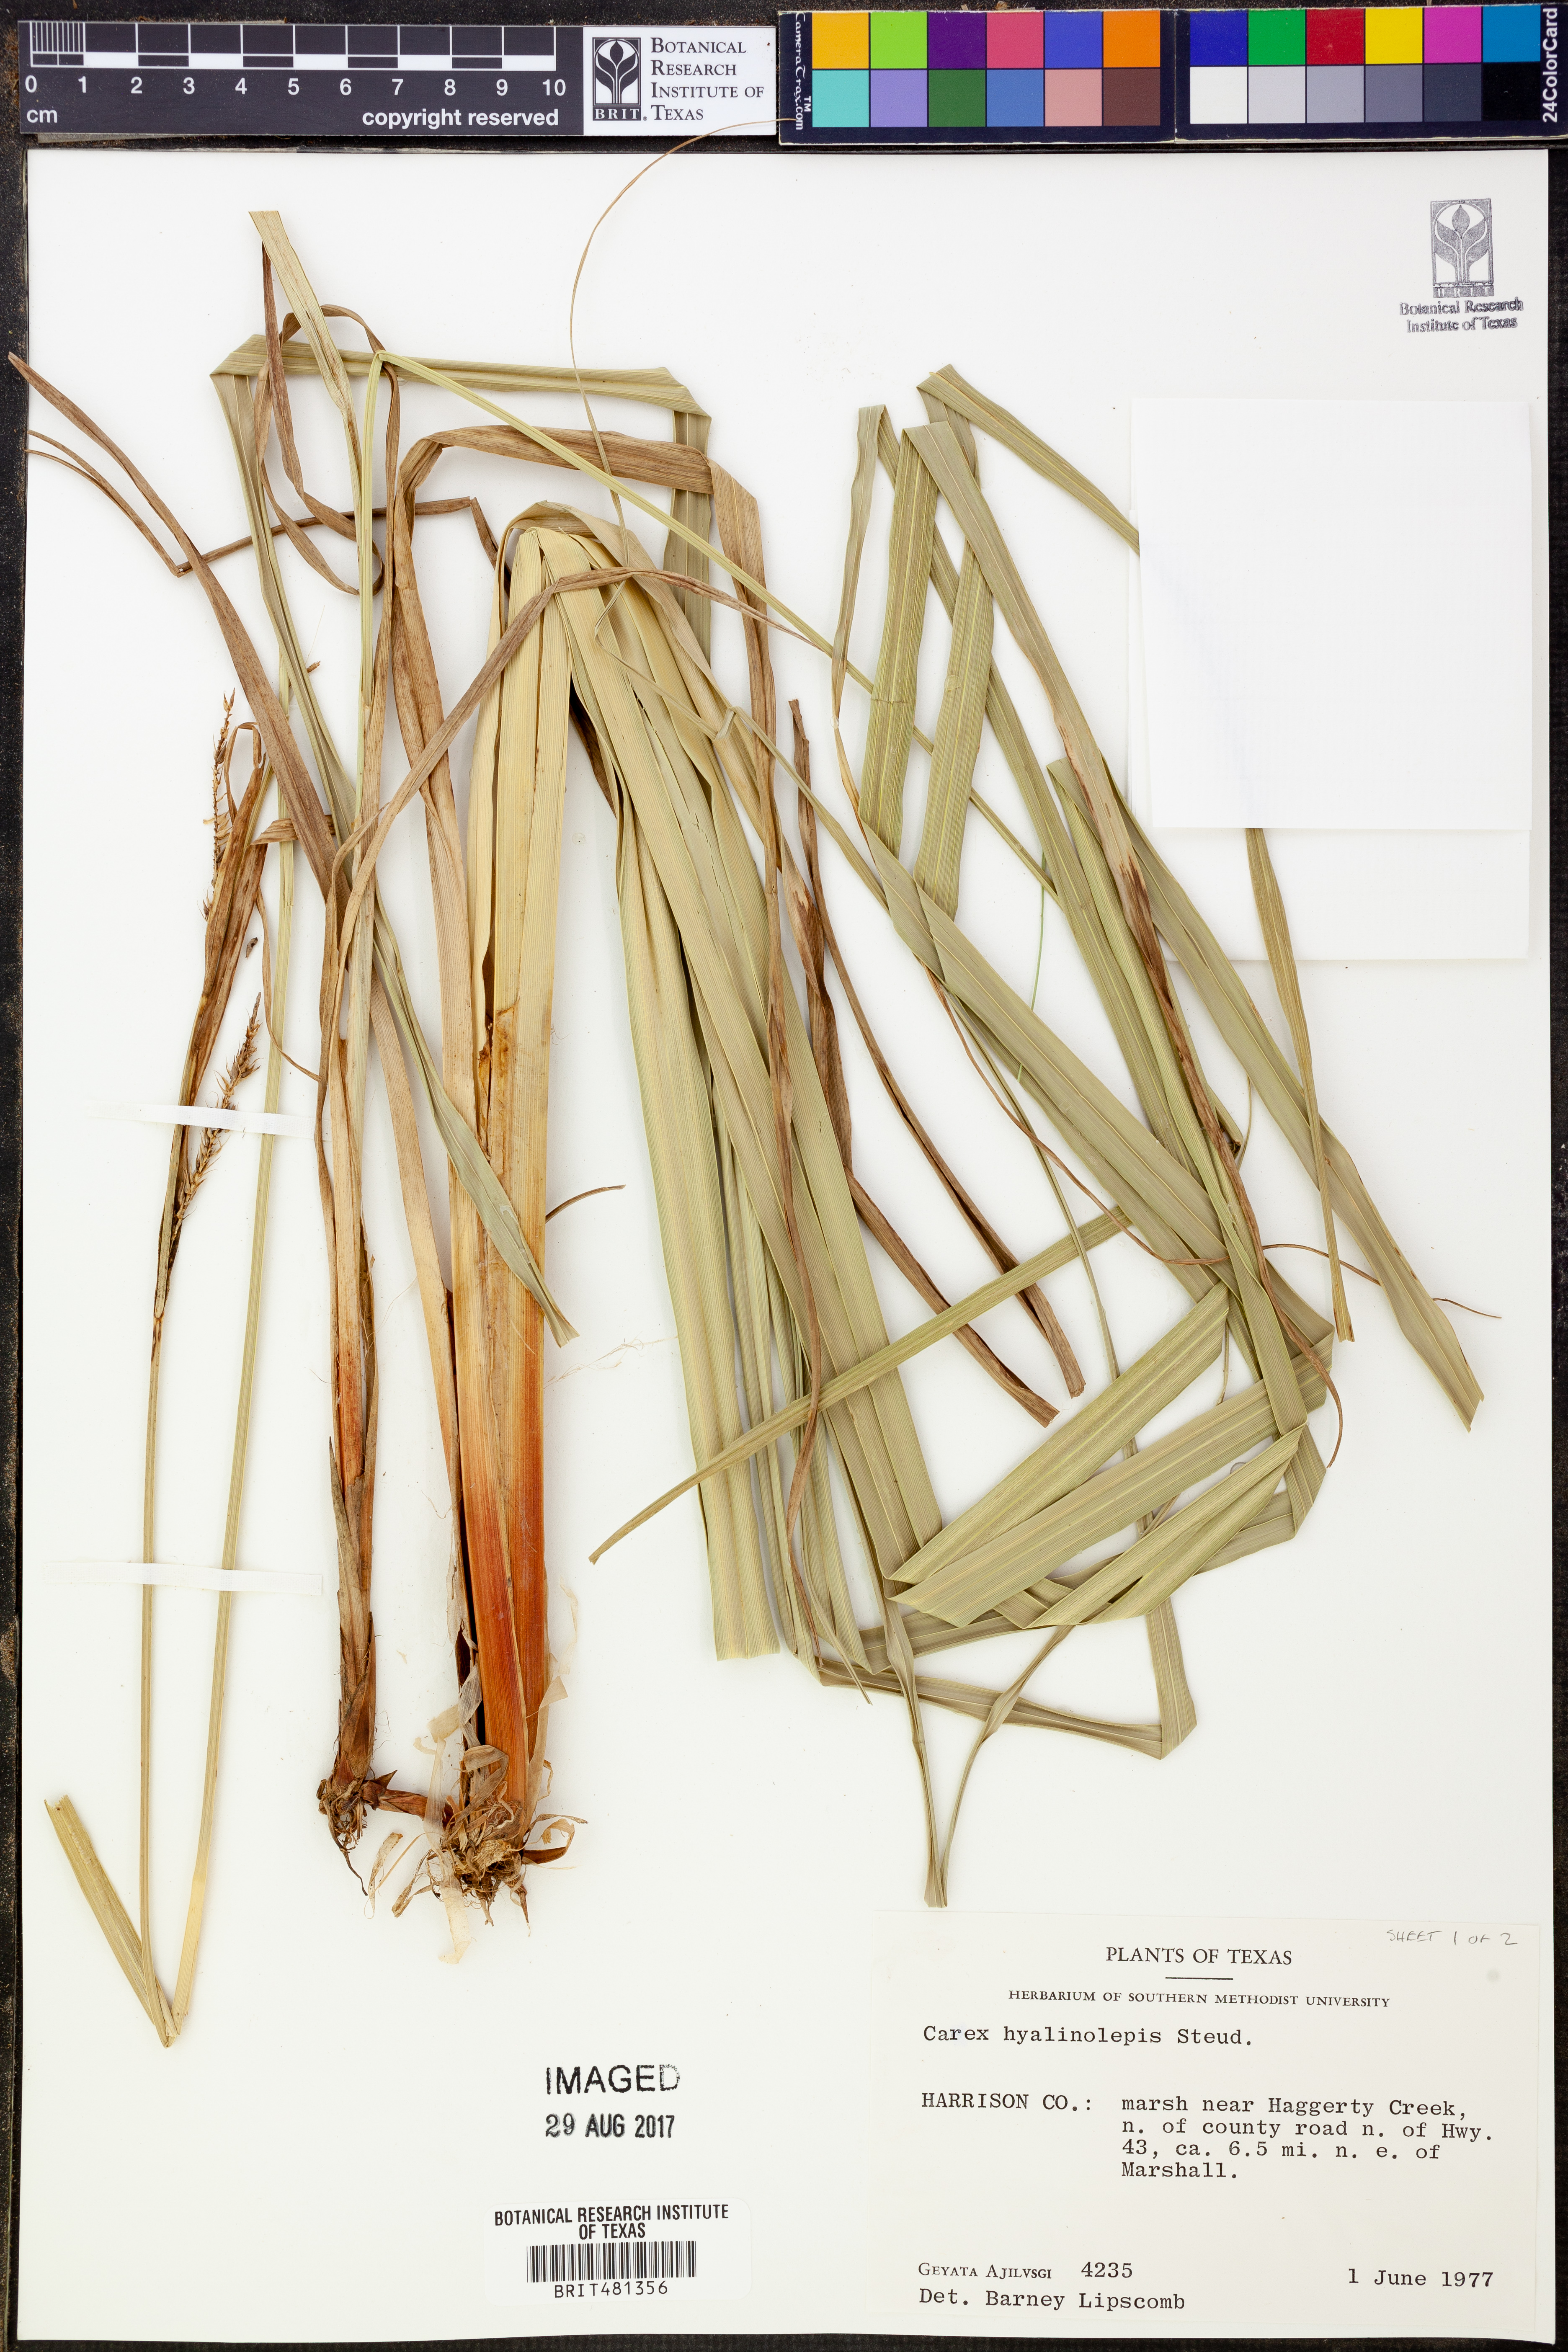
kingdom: Plantae
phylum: Tracheophyta
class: Liliopsida
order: Poales
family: Cyperaceae
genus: Carex
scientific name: Carex hyalinolepis
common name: Shoreline sedge
